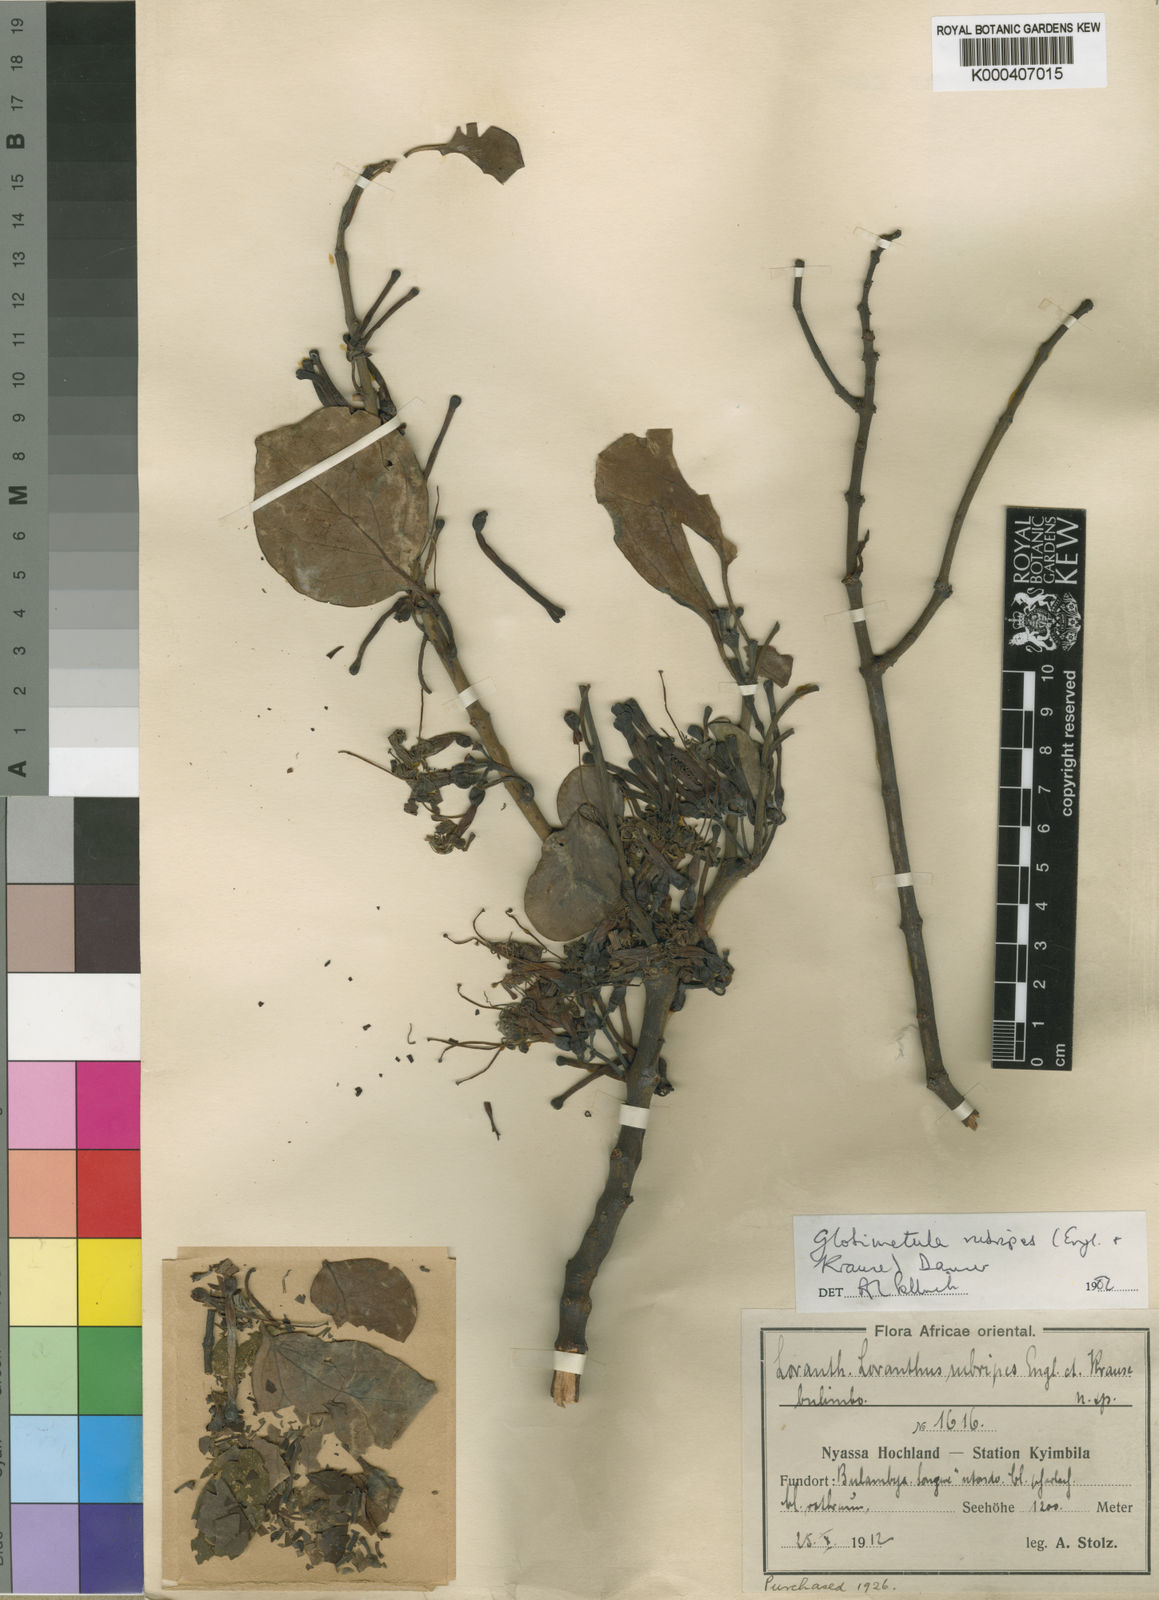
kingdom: Plantae
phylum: Tracheophyta
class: Magnoliopsida
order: Santalales
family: Loranthaceae
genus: Globimetula
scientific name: Globimetula rubripes
